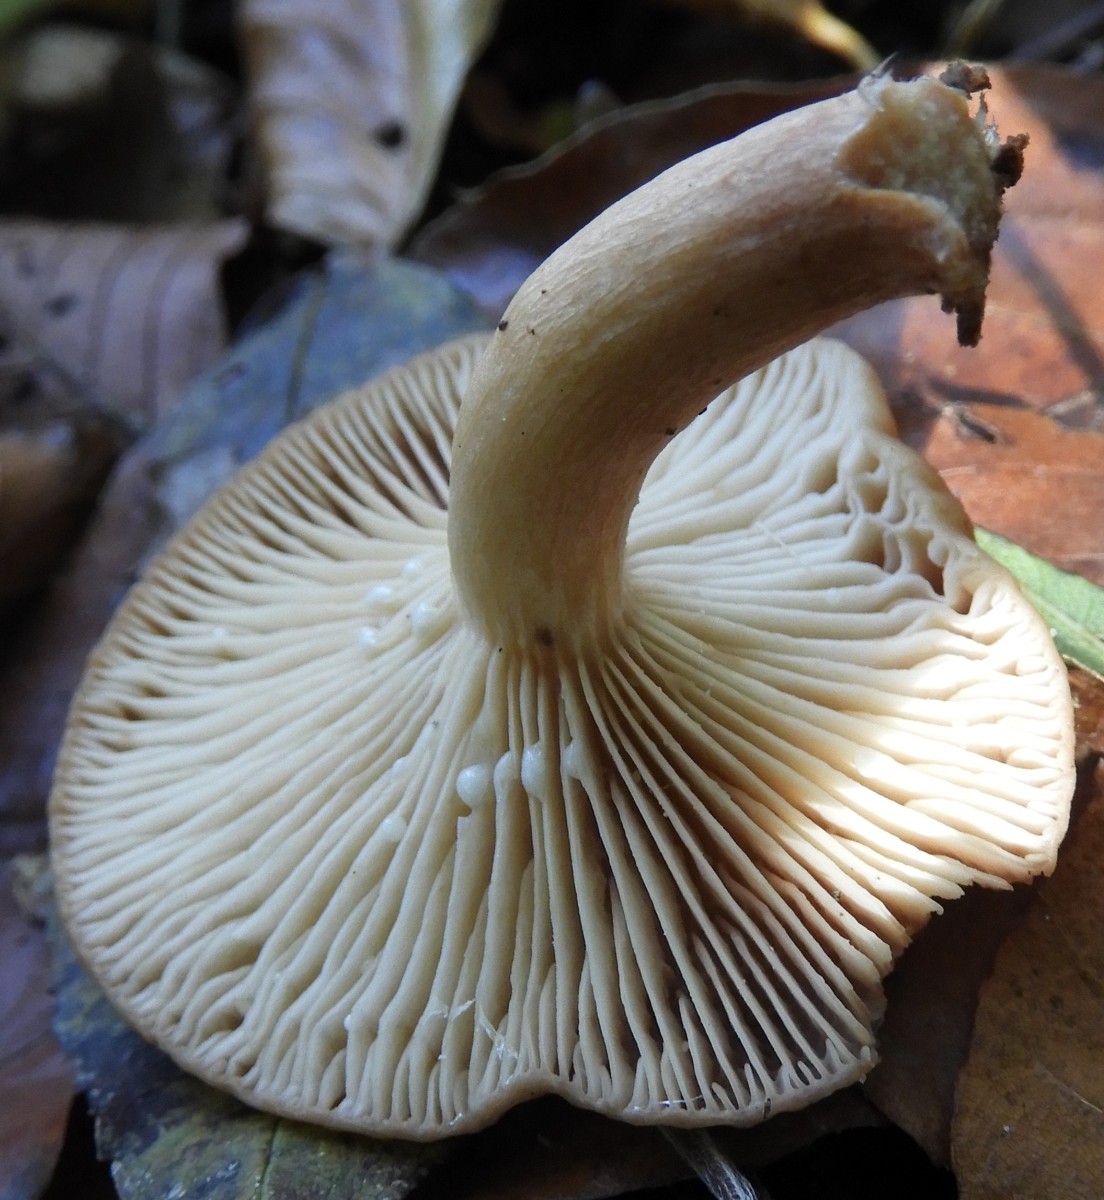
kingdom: Fungi
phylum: Basidiomycota
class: Agaricomycetes
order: Russulales
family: Russulaceae
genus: Lactarius
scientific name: Lactarius subdulcis
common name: sødlig mælkehat
